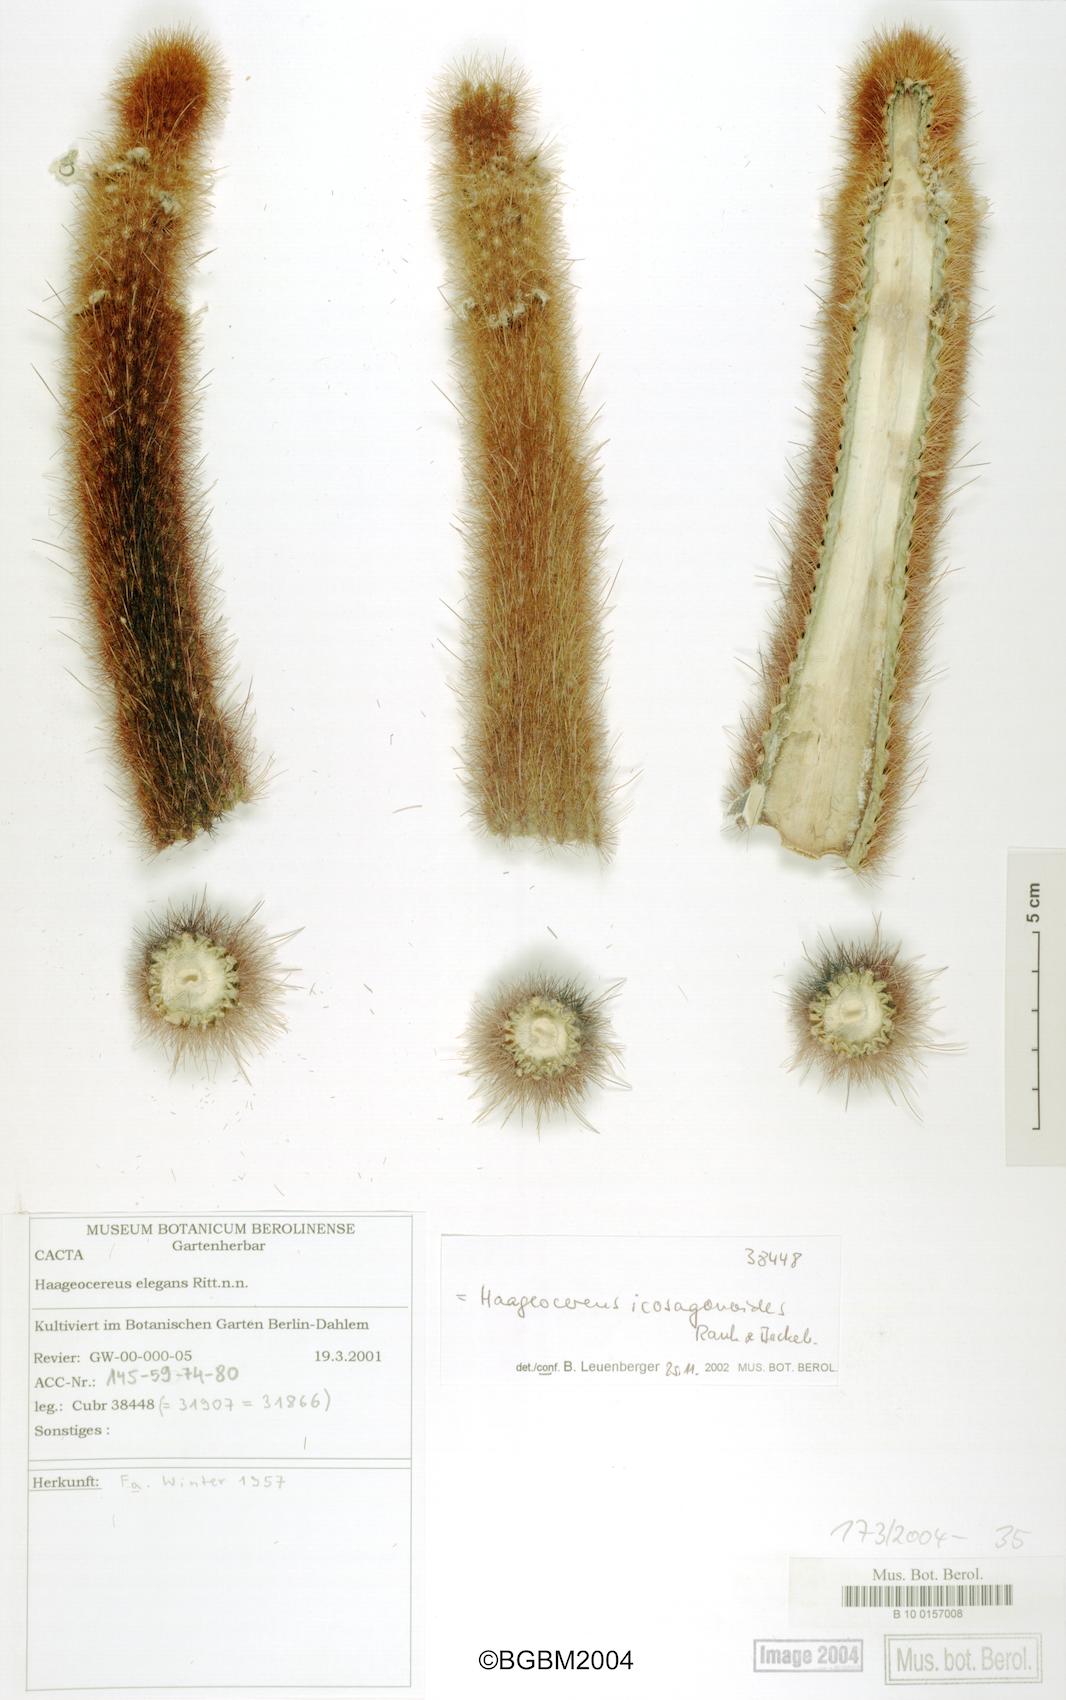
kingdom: Plantae
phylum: Tracheophyta
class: Magnoliopsida
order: Caryophyllales
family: Cactaceae
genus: Haageocereus
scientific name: Haageocereus versicolor
